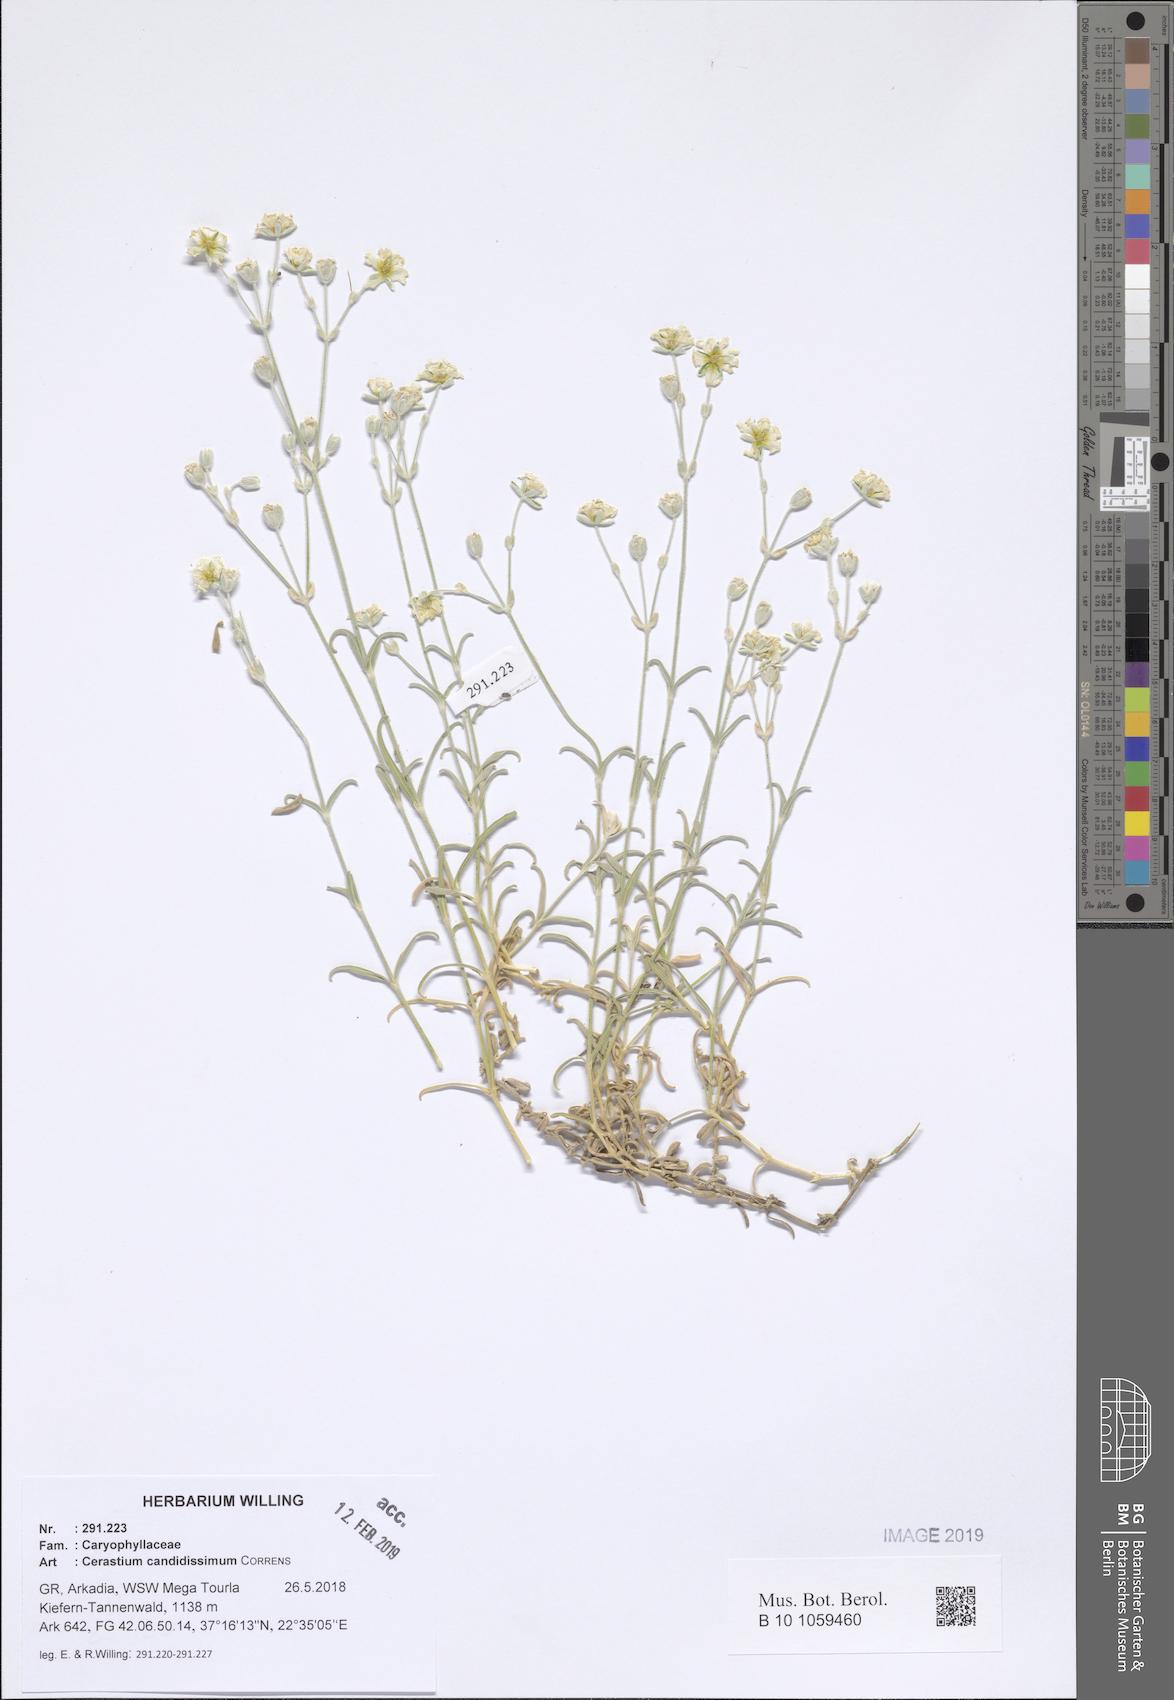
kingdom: Plantae
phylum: Tracheophyta
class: Magnoliopsida
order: Caryophyllales
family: Caryophyllaceae
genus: Cerastium
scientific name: Cerastium candidissimum
